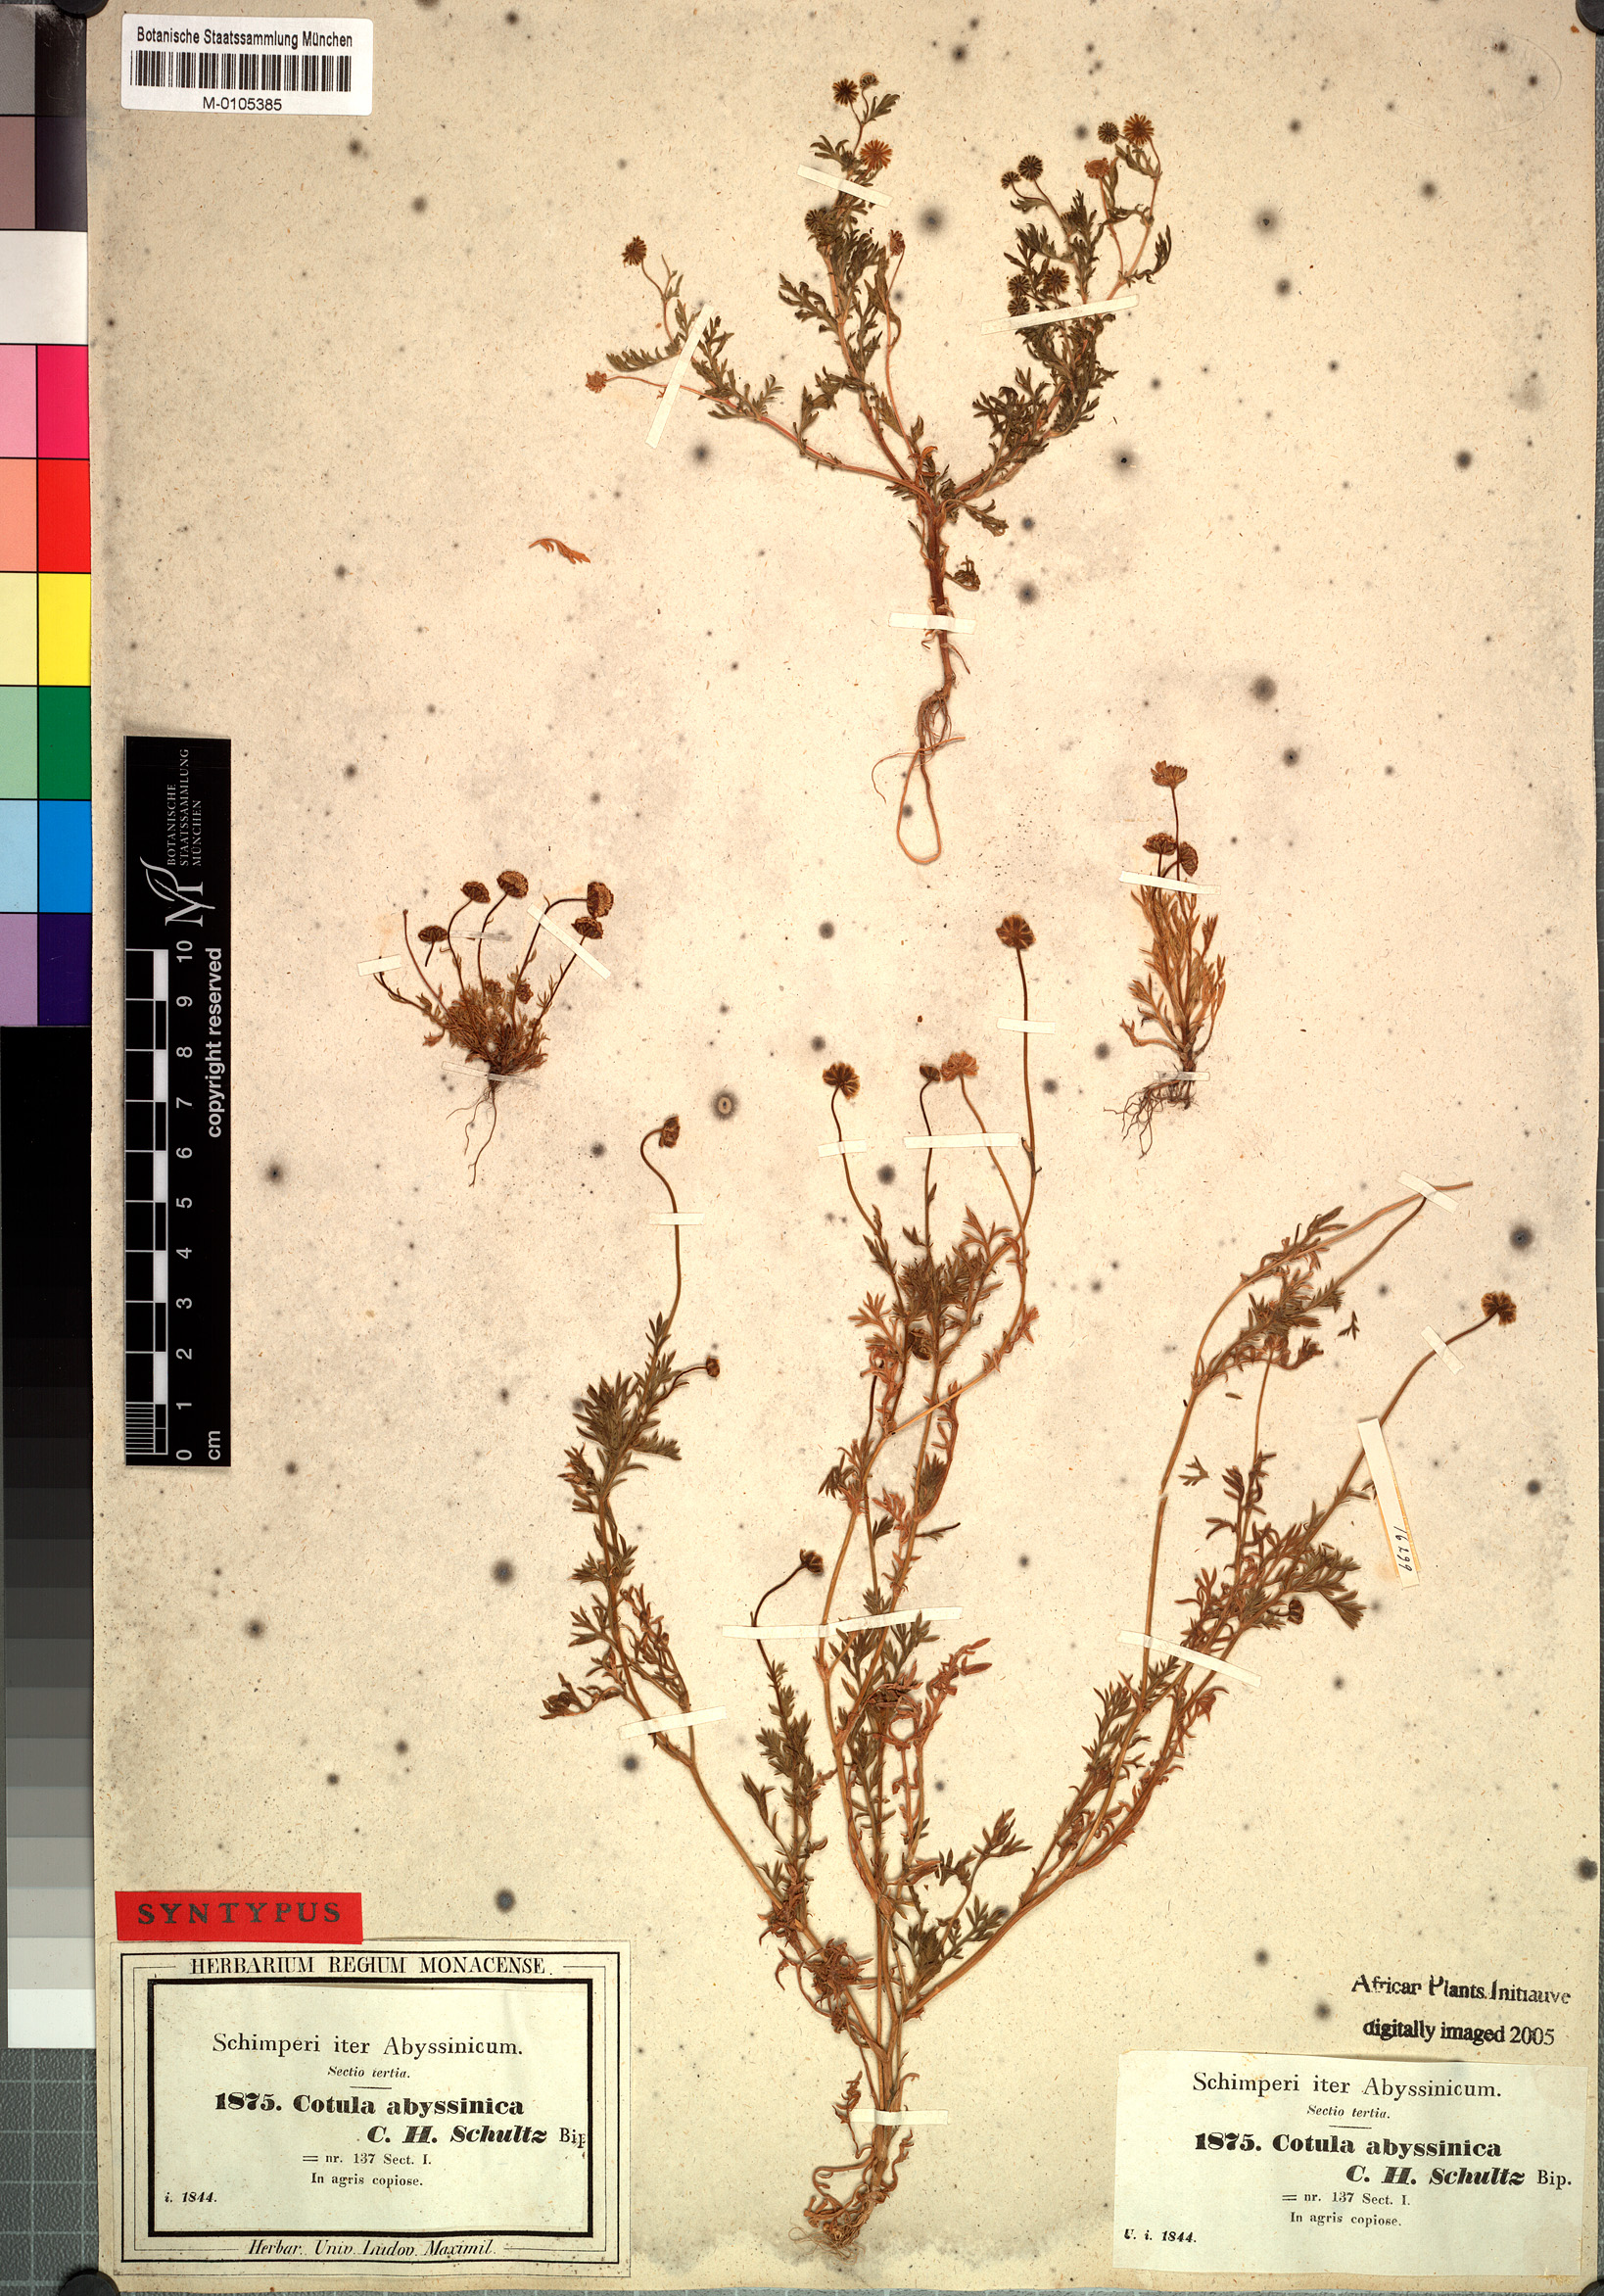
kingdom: Plantae
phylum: Tracheophyta
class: Magnoliopsida
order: Asterales
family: Asteraceae
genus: Cotula
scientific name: Cotula abyssinica
